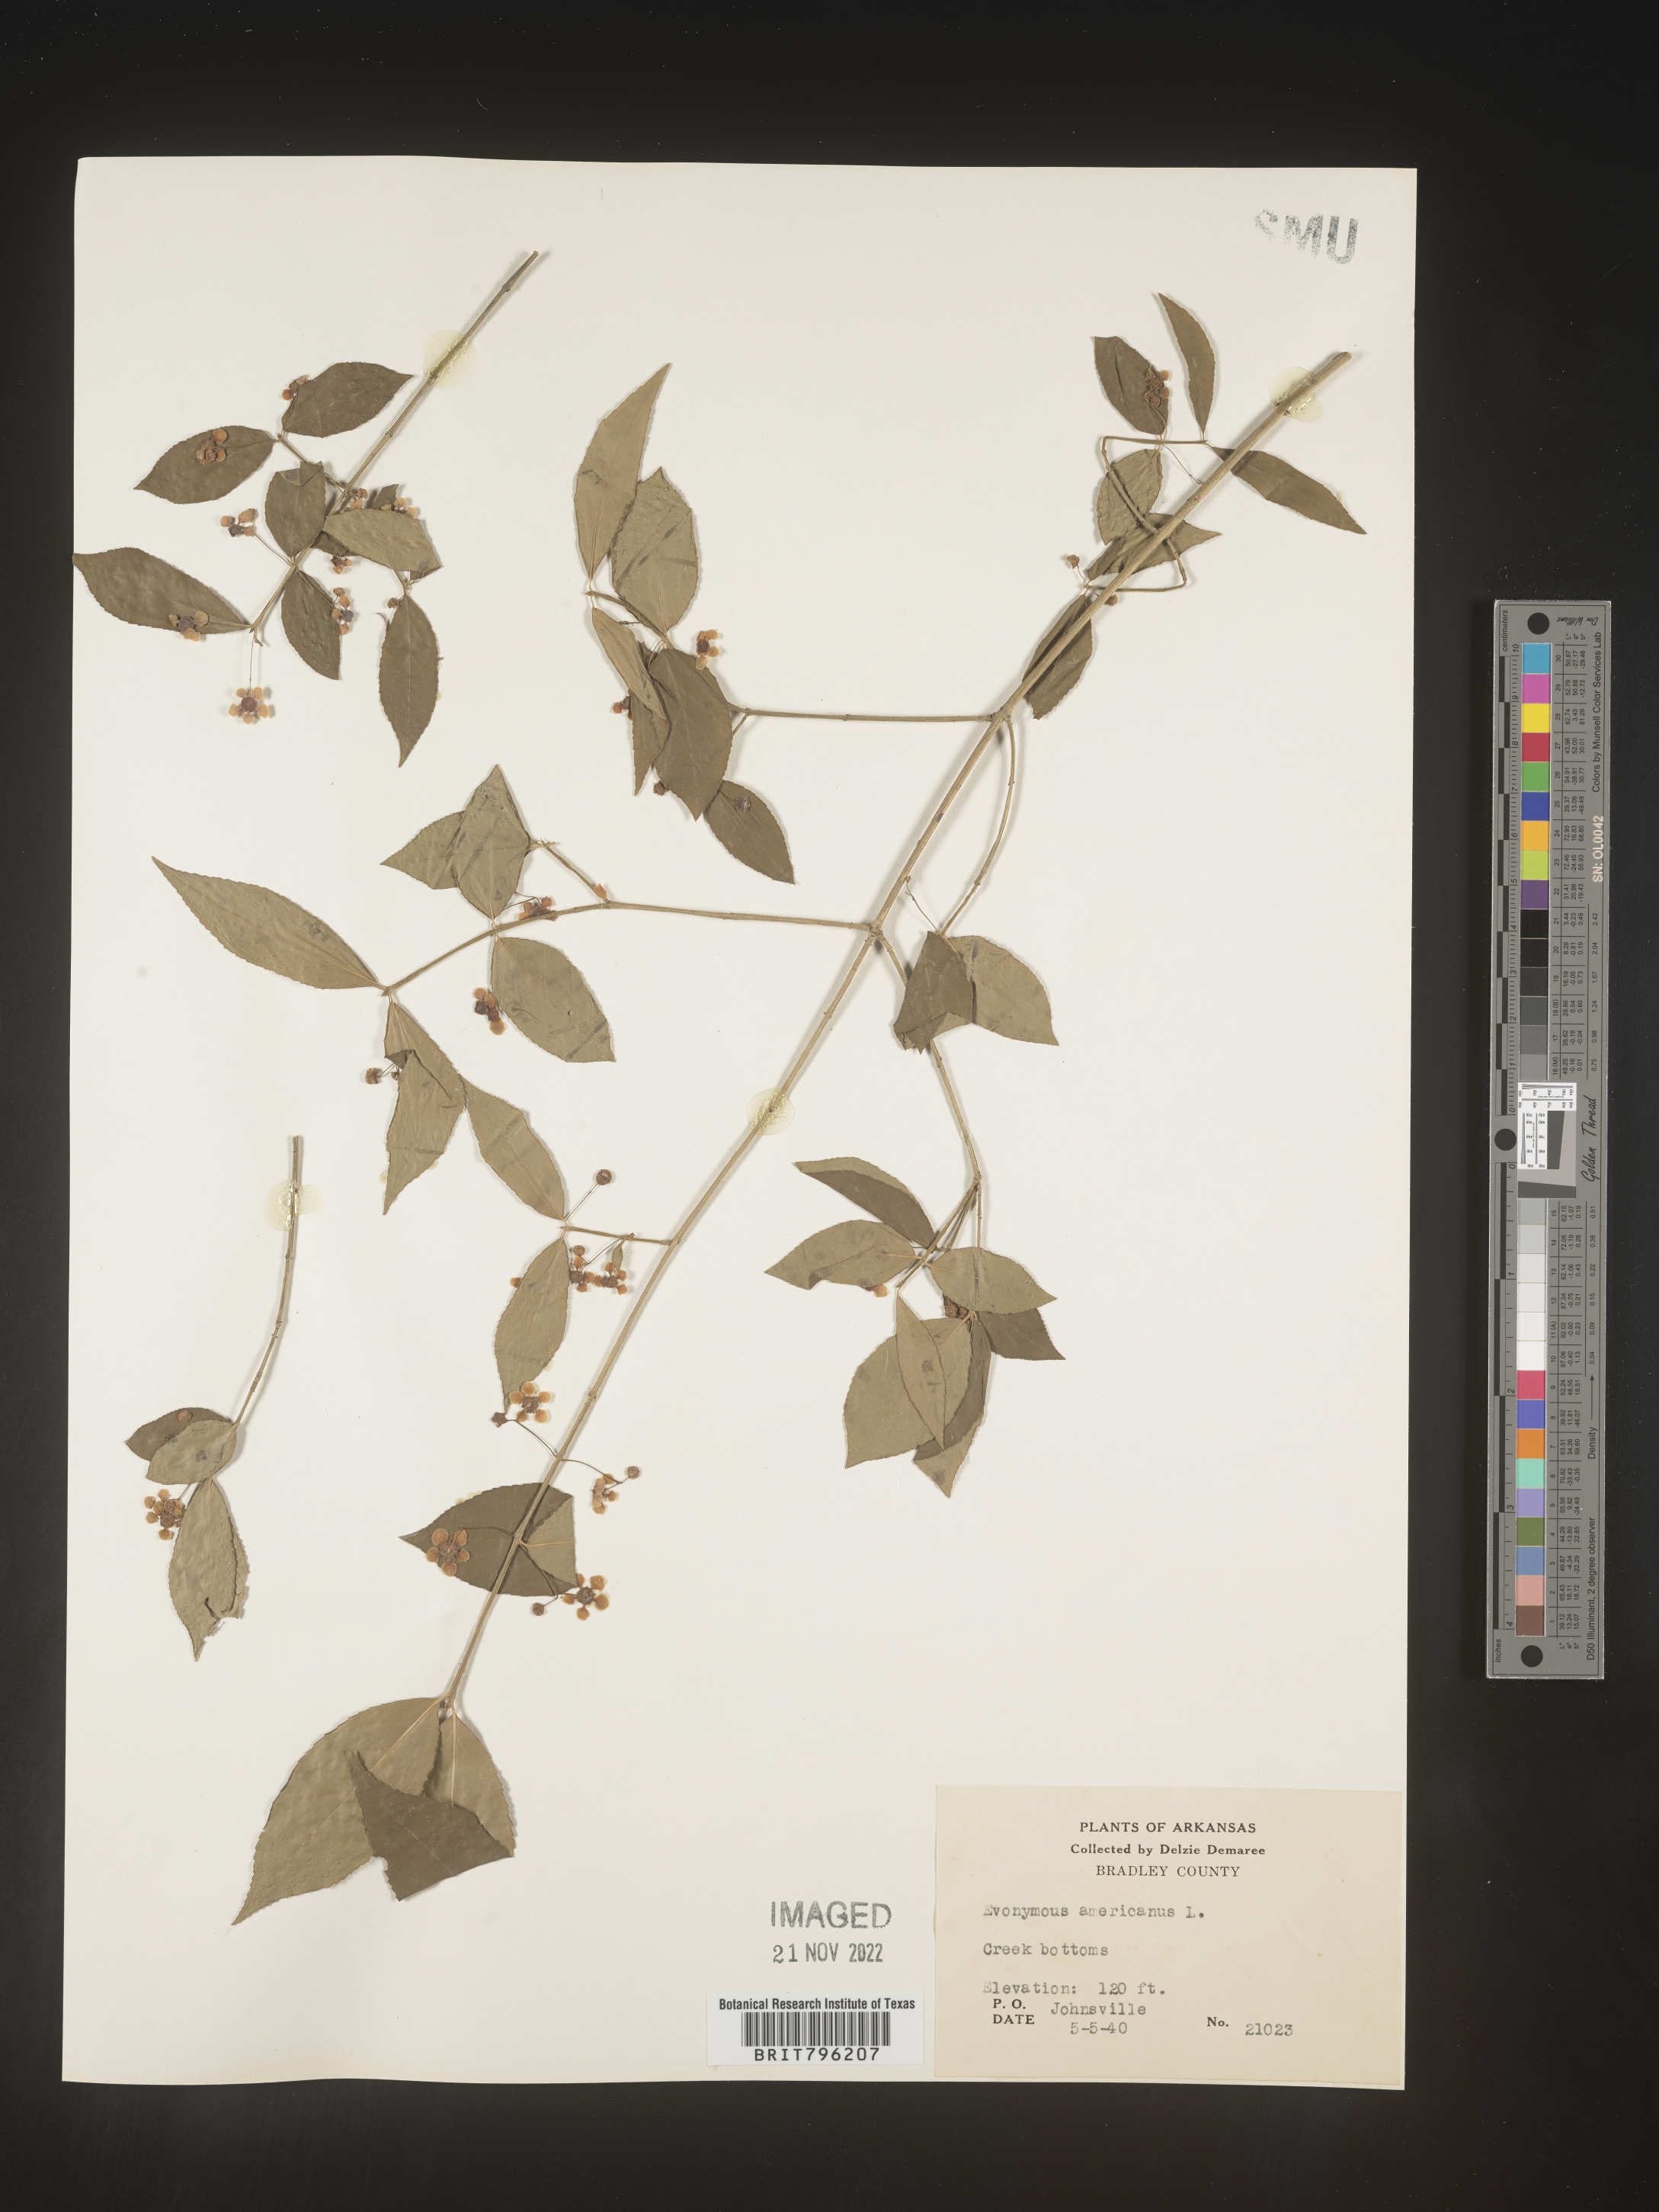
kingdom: Plantae
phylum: Tracheophyta
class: Magnoliopsida
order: Celastrales
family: Celastraceae
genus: Euonymus
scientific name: Euonymus americanus
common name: Bursting-heart
